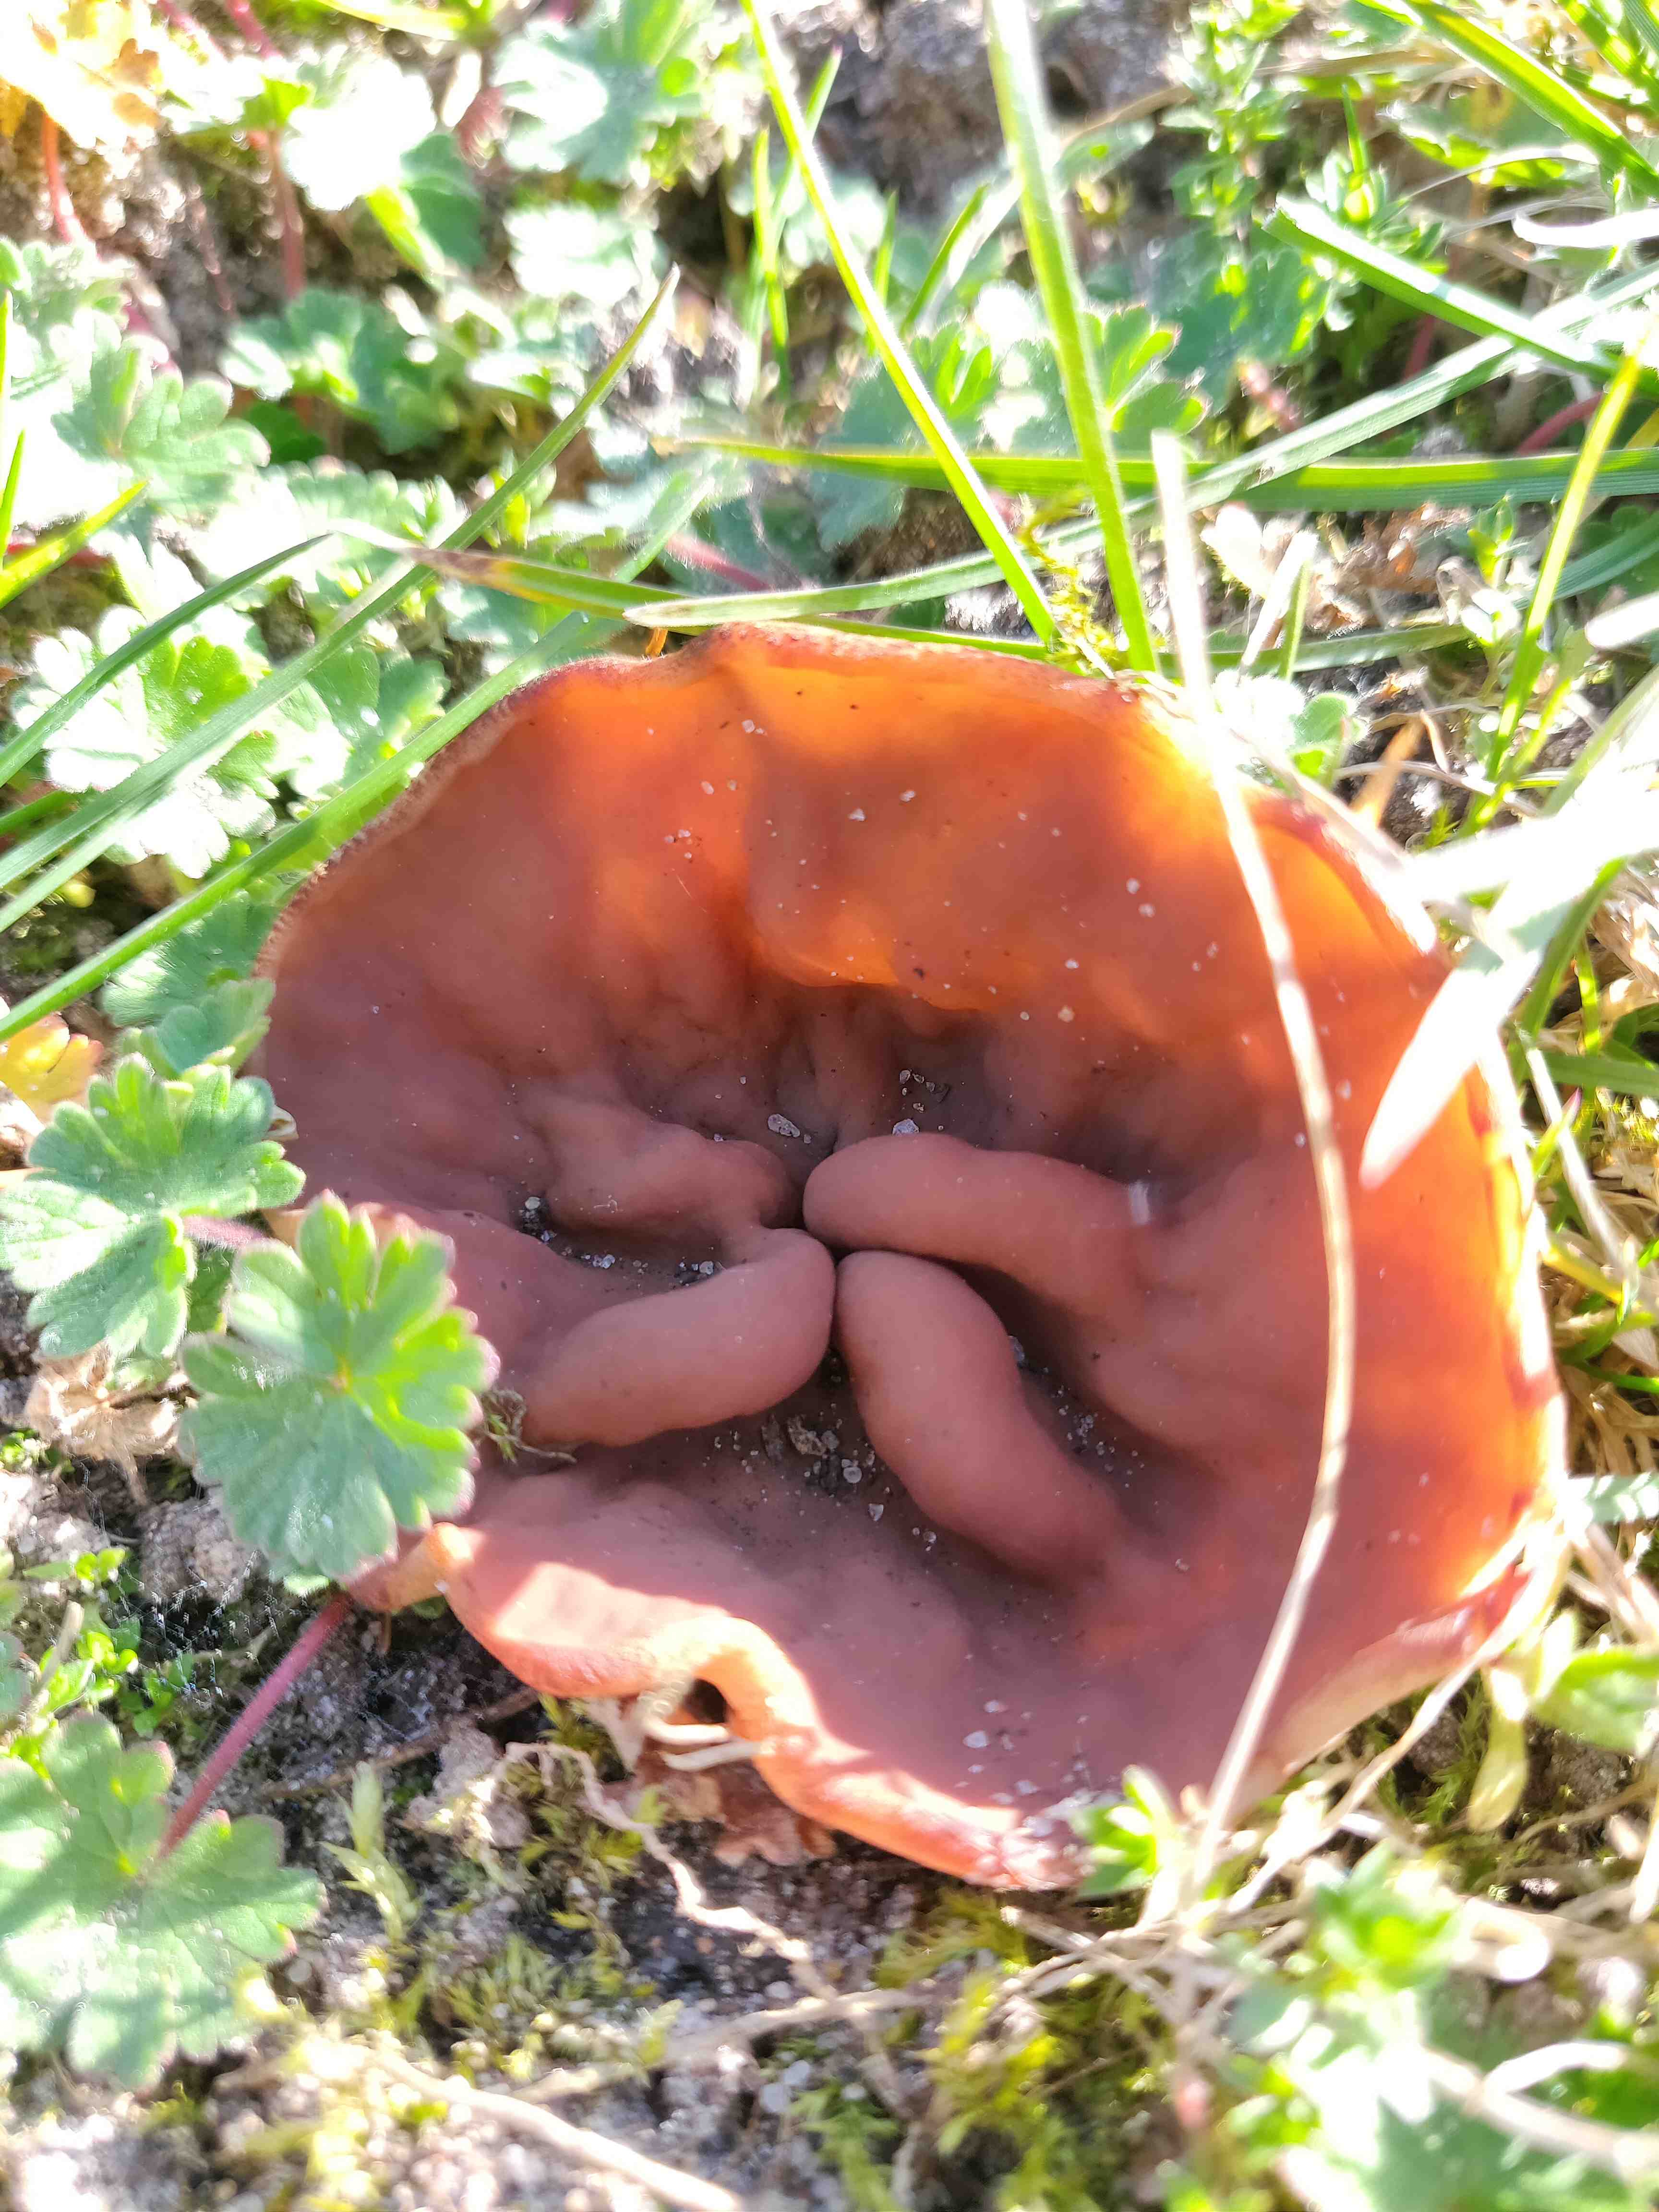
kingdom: Fungi
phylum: Ascomycota
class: Pezizomycetes
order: Pezizales
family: Discinaceae
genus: Discina
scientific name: Discina ancilis
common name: udbredt stenmorkel
